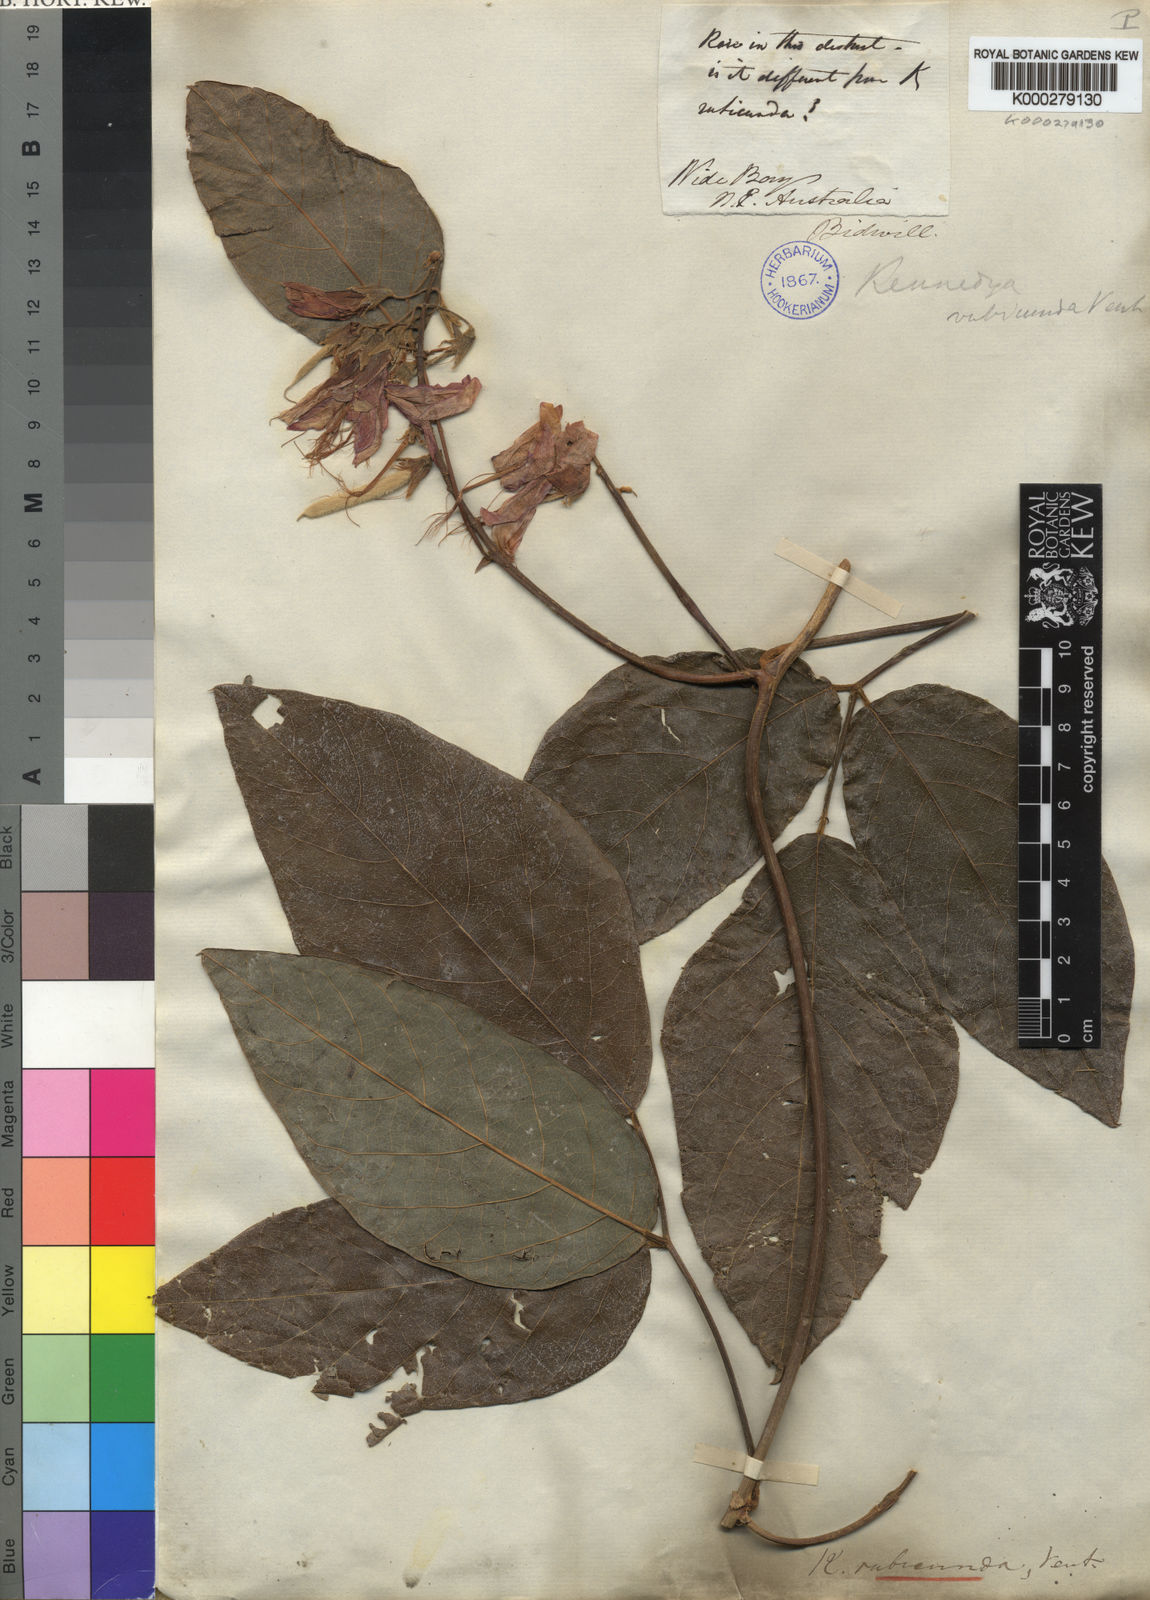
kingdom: Plantae
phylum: Tracheophyta
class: Magnoliopsida
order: Fabales
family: Fabaceae
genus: Kennedia
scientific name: Kennedia rubicunda
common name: Red kennedy-pea
